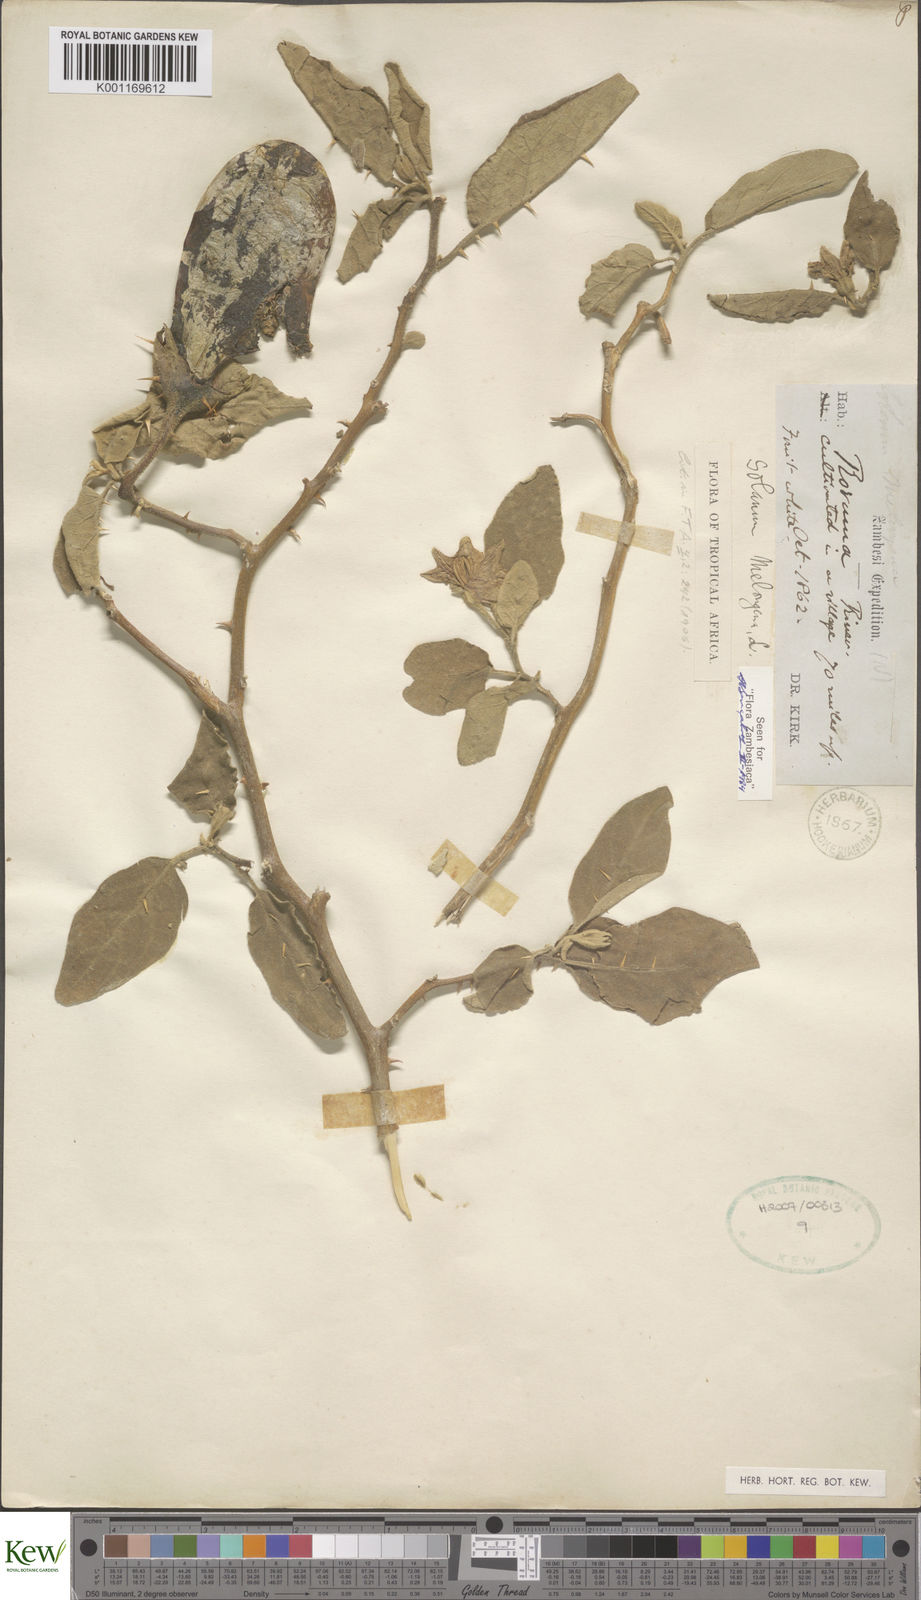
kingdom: Plantae
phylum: Tracheophyta
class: Magnoliopsida
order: Solanales
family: Solanaceae
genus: Solanum
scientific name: Solanum melongena
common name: Eggplant
